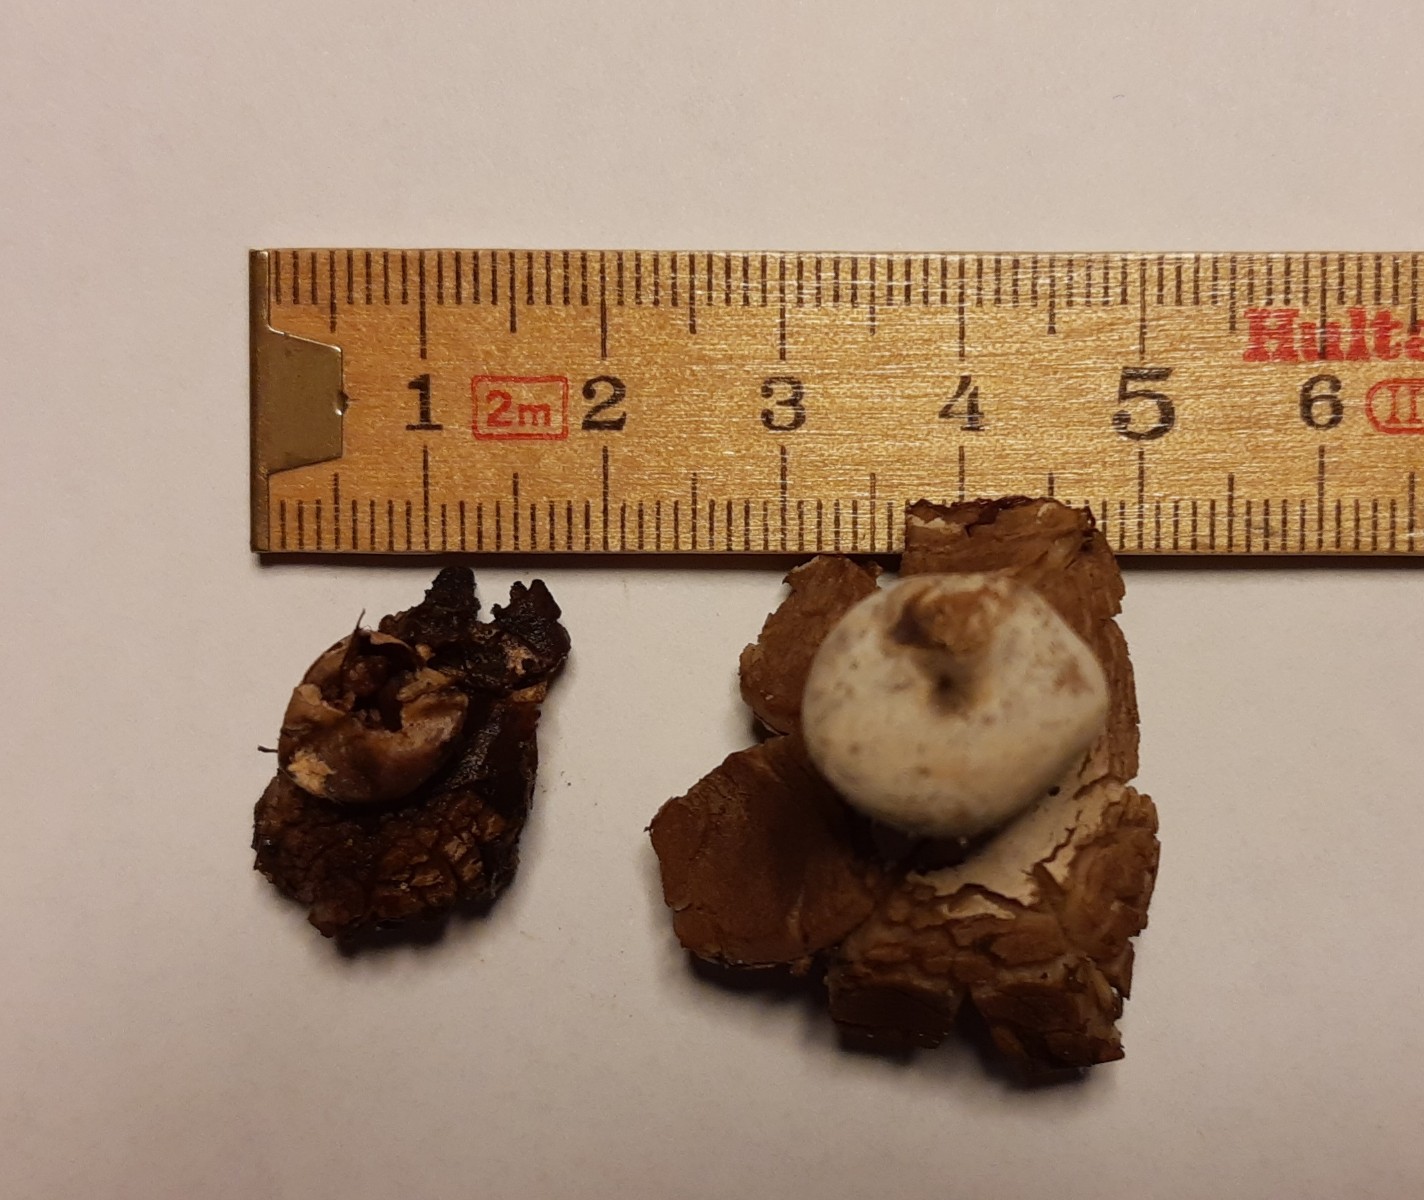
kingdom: Fungi
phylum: Basidiomycota
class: Agaricomycetes
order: Geastrales
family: Geastraceae
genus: Geastrum
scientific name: Geastrum
